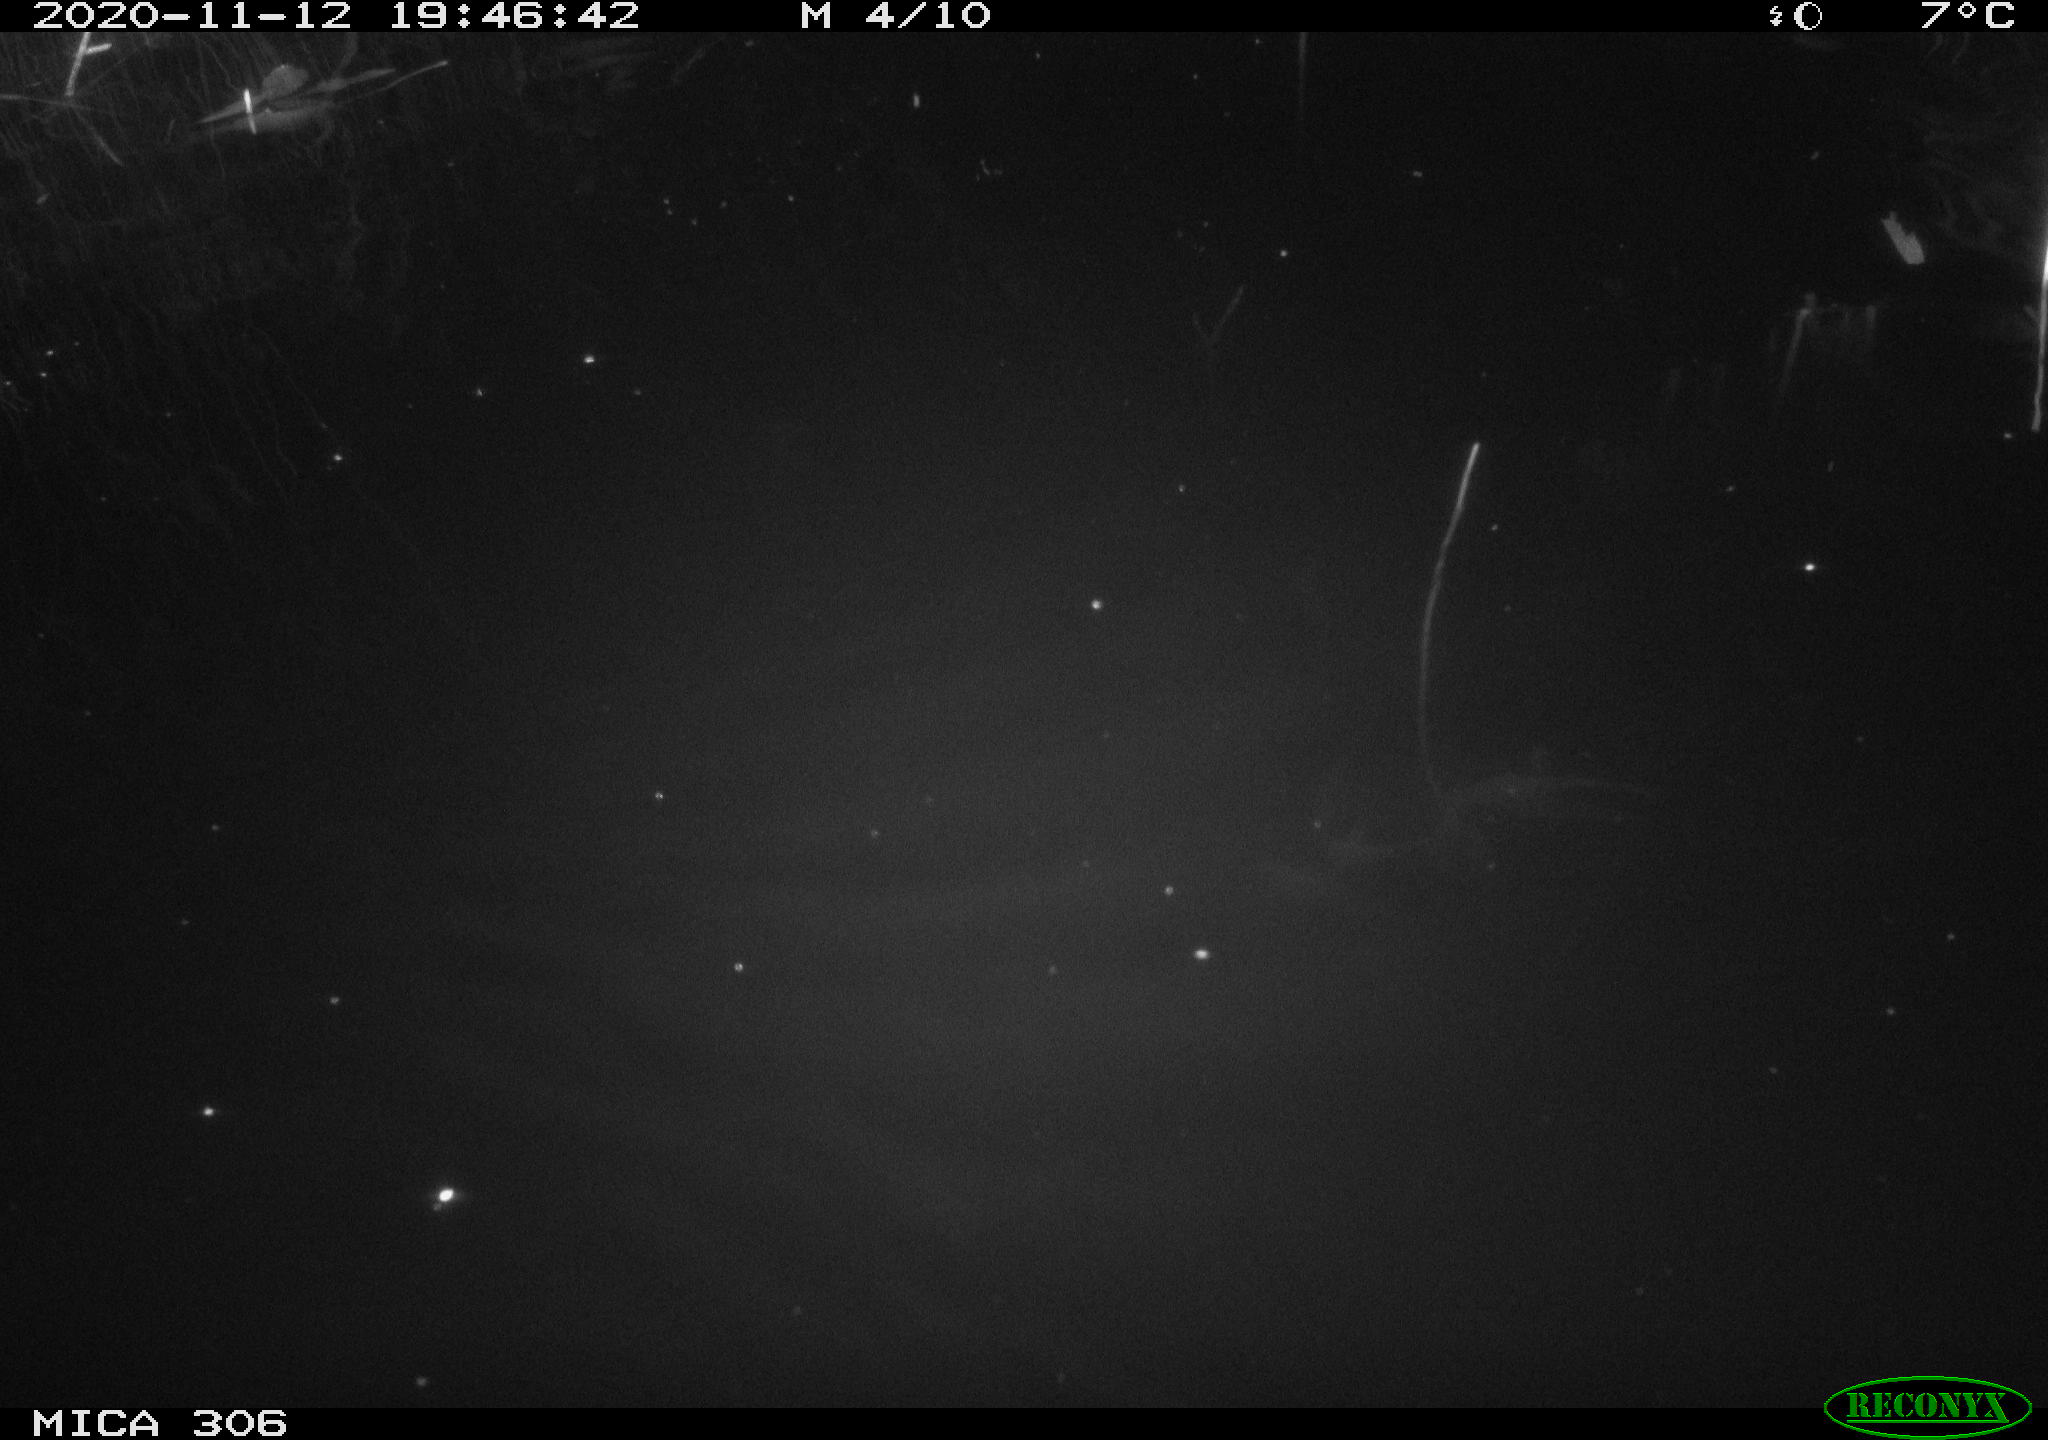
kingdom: Animalia
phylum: Chordata
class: Mammalia
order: Rodentia
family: Muridae
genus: Rattus
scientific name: Rattus norvegicus
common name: Brown rat
